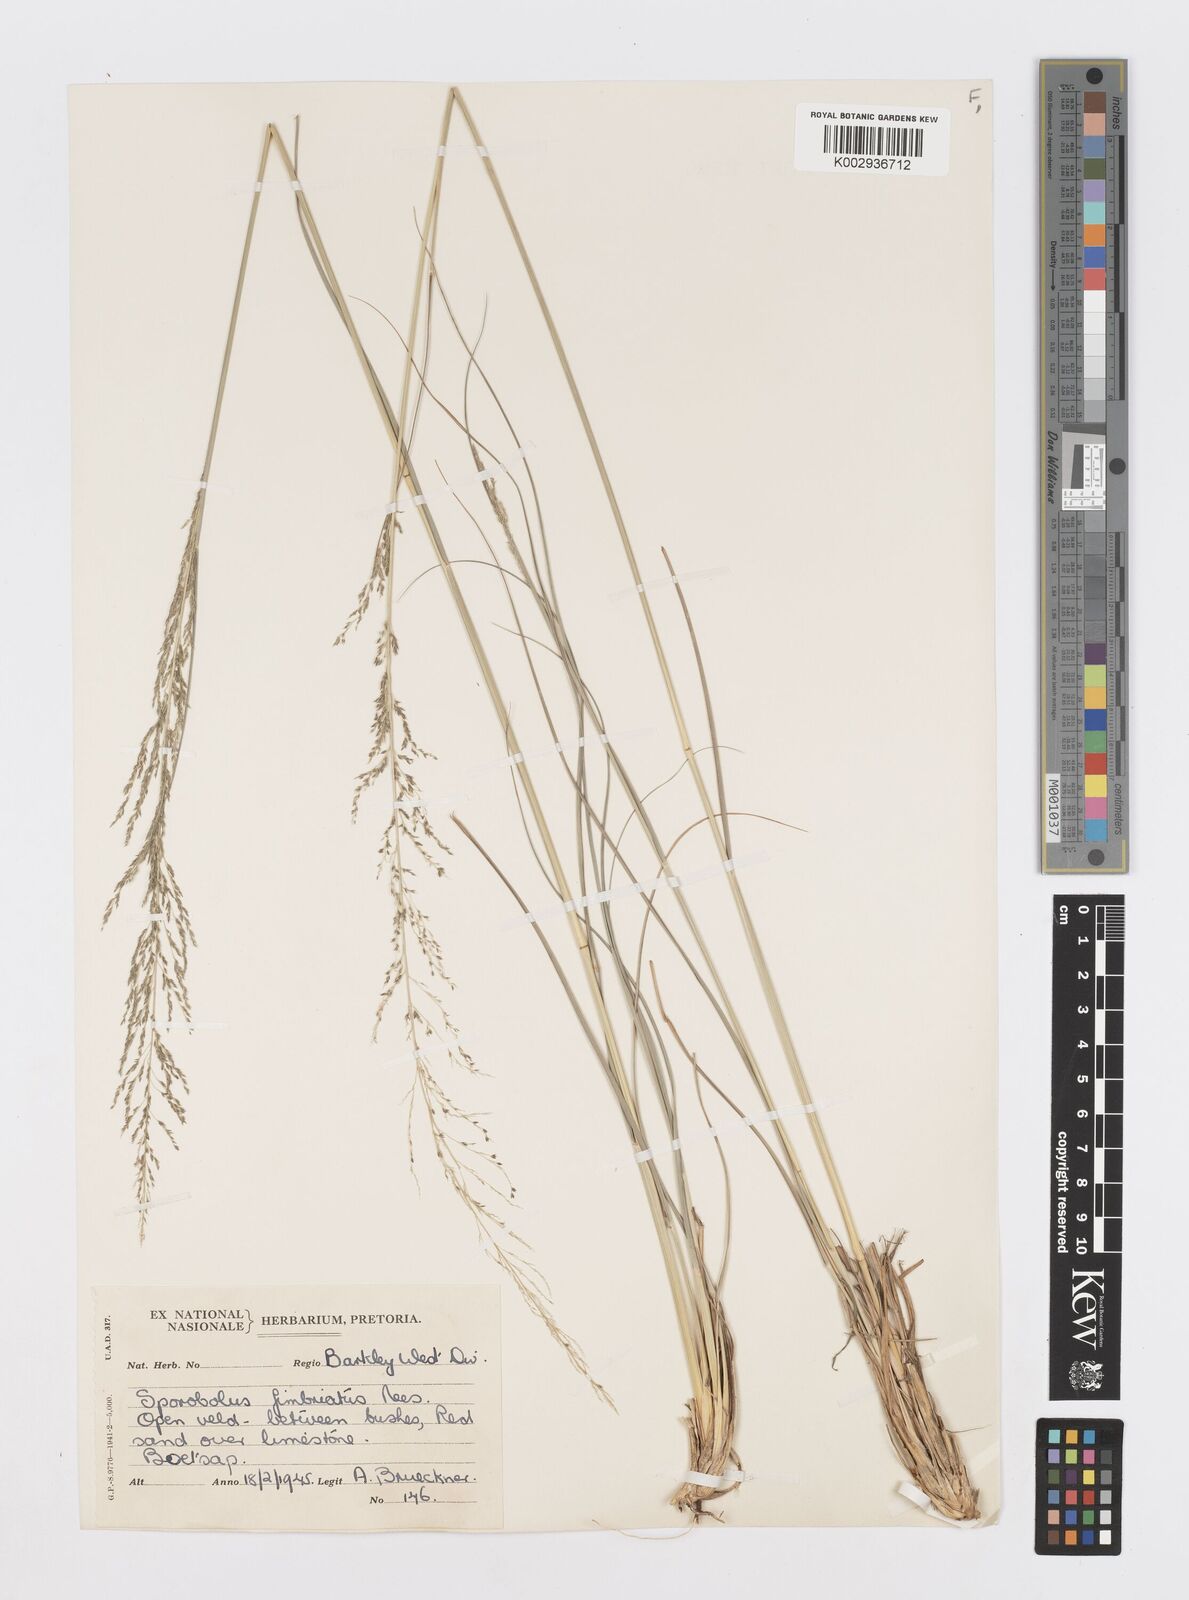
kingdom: Plantae
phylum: Tracheophyta
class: Liliopsida
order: Poales
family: Poaceae
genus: Sporobolus
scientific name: Sporobolus fimbriatus
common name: Fringed dropseed
